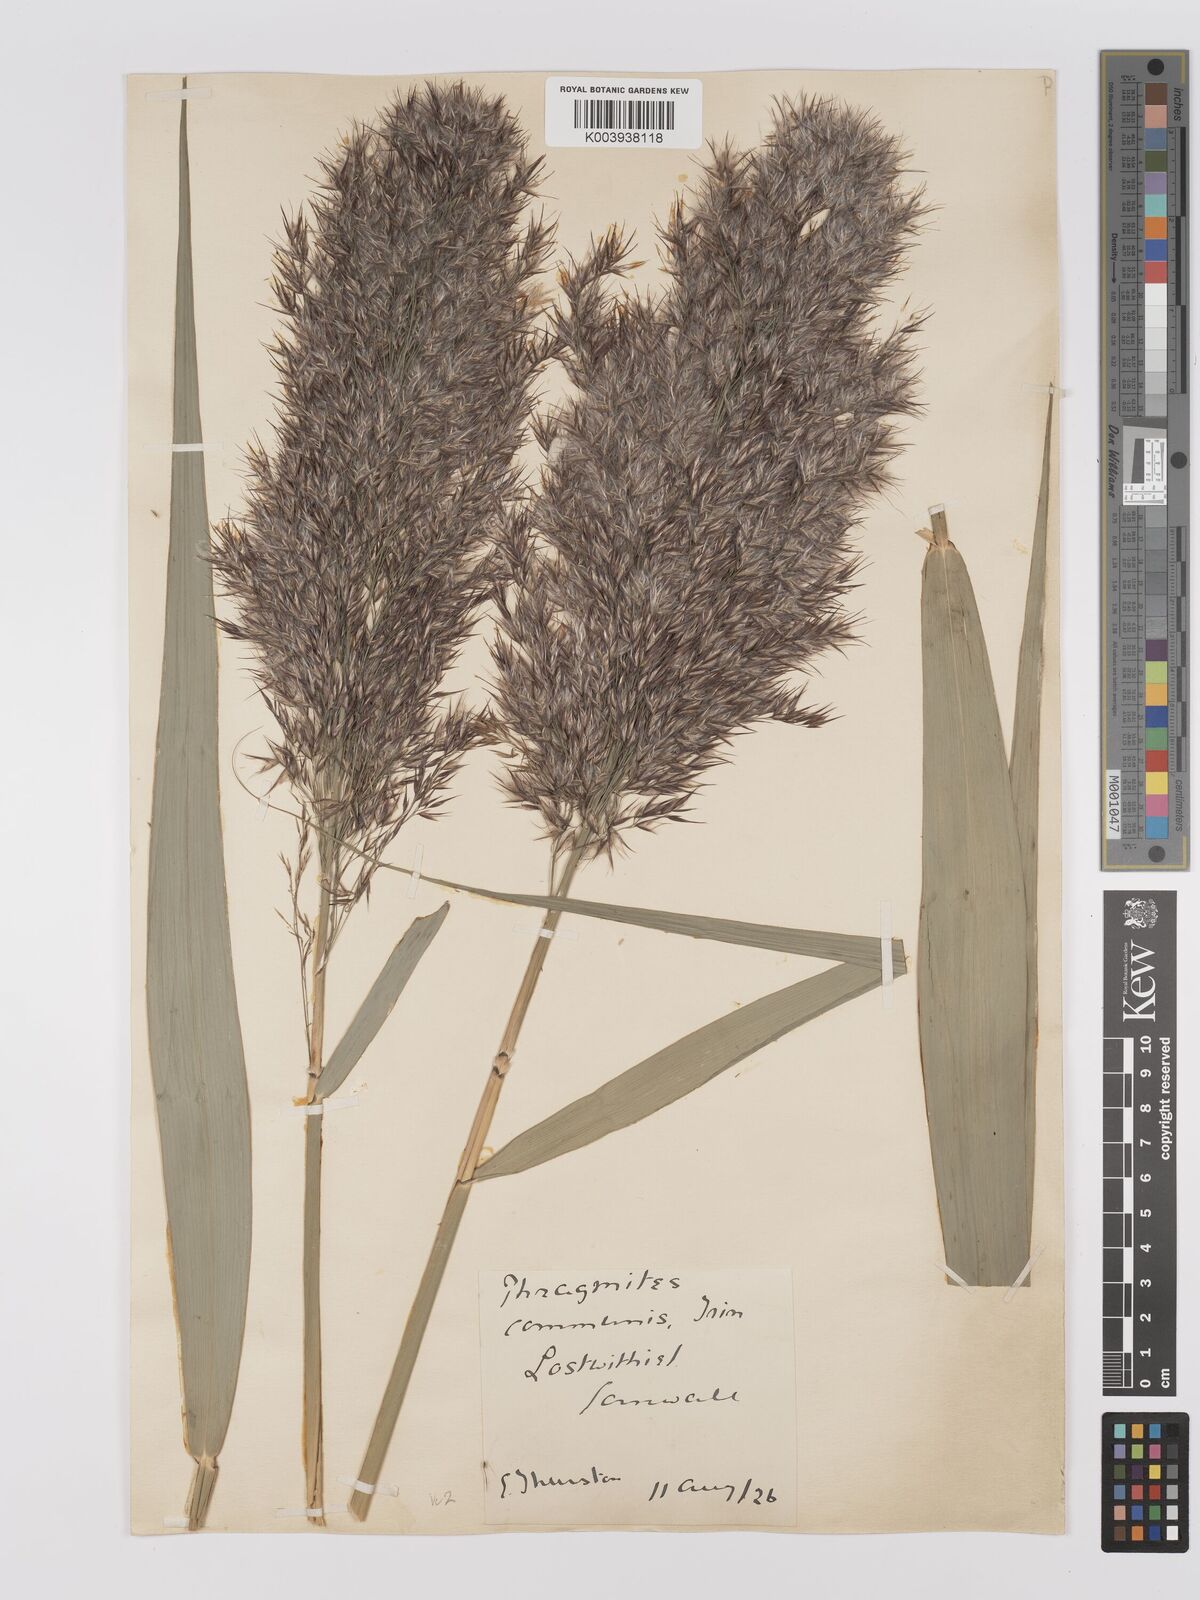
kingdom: Plantae
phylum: Tracheophyta
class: Liliopsida
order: Poales
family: Poaceae
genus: Phragmites
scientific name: Phragmites australis
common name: Common reed
